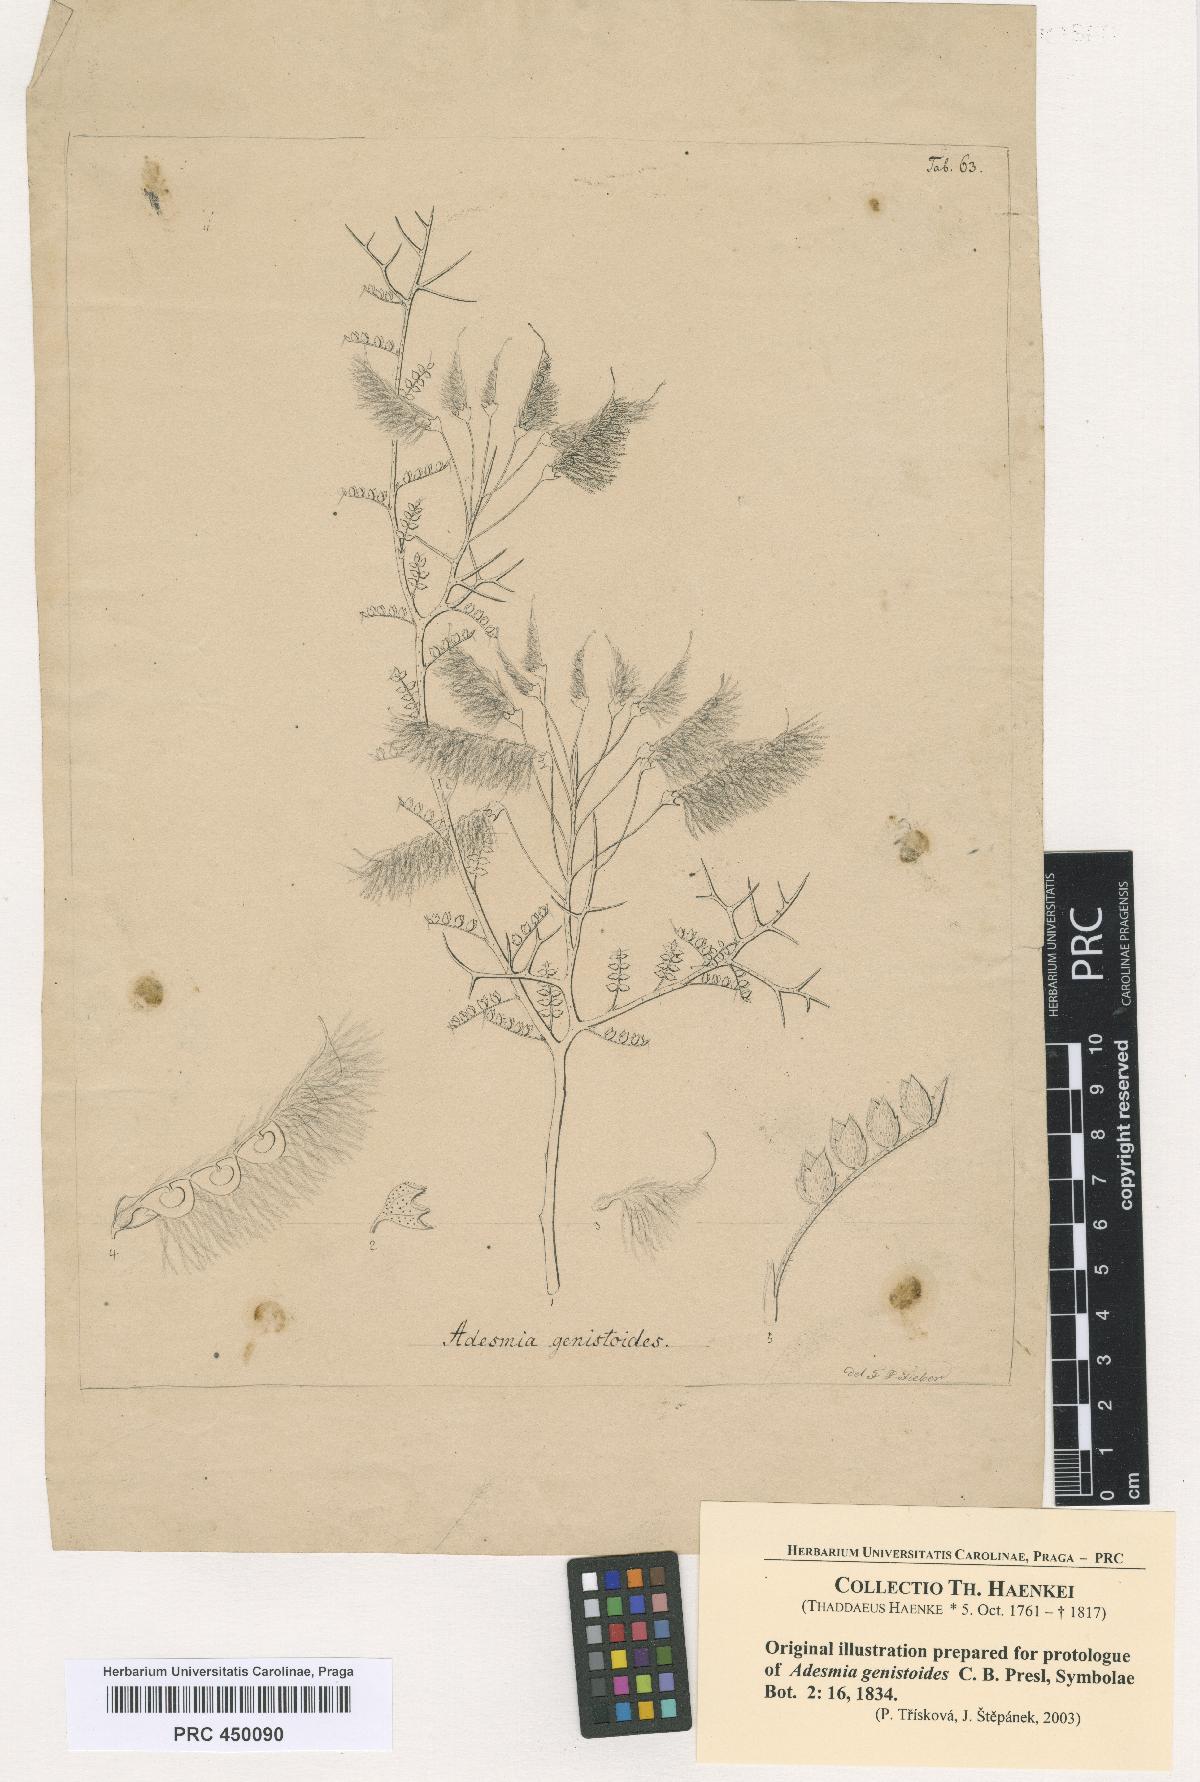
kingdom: Plantae
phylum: Tracheophyta
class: Magnoliopsida
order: Fabales
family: Fabaceae
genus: Adesmia
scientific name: Adesmia pedicellata
